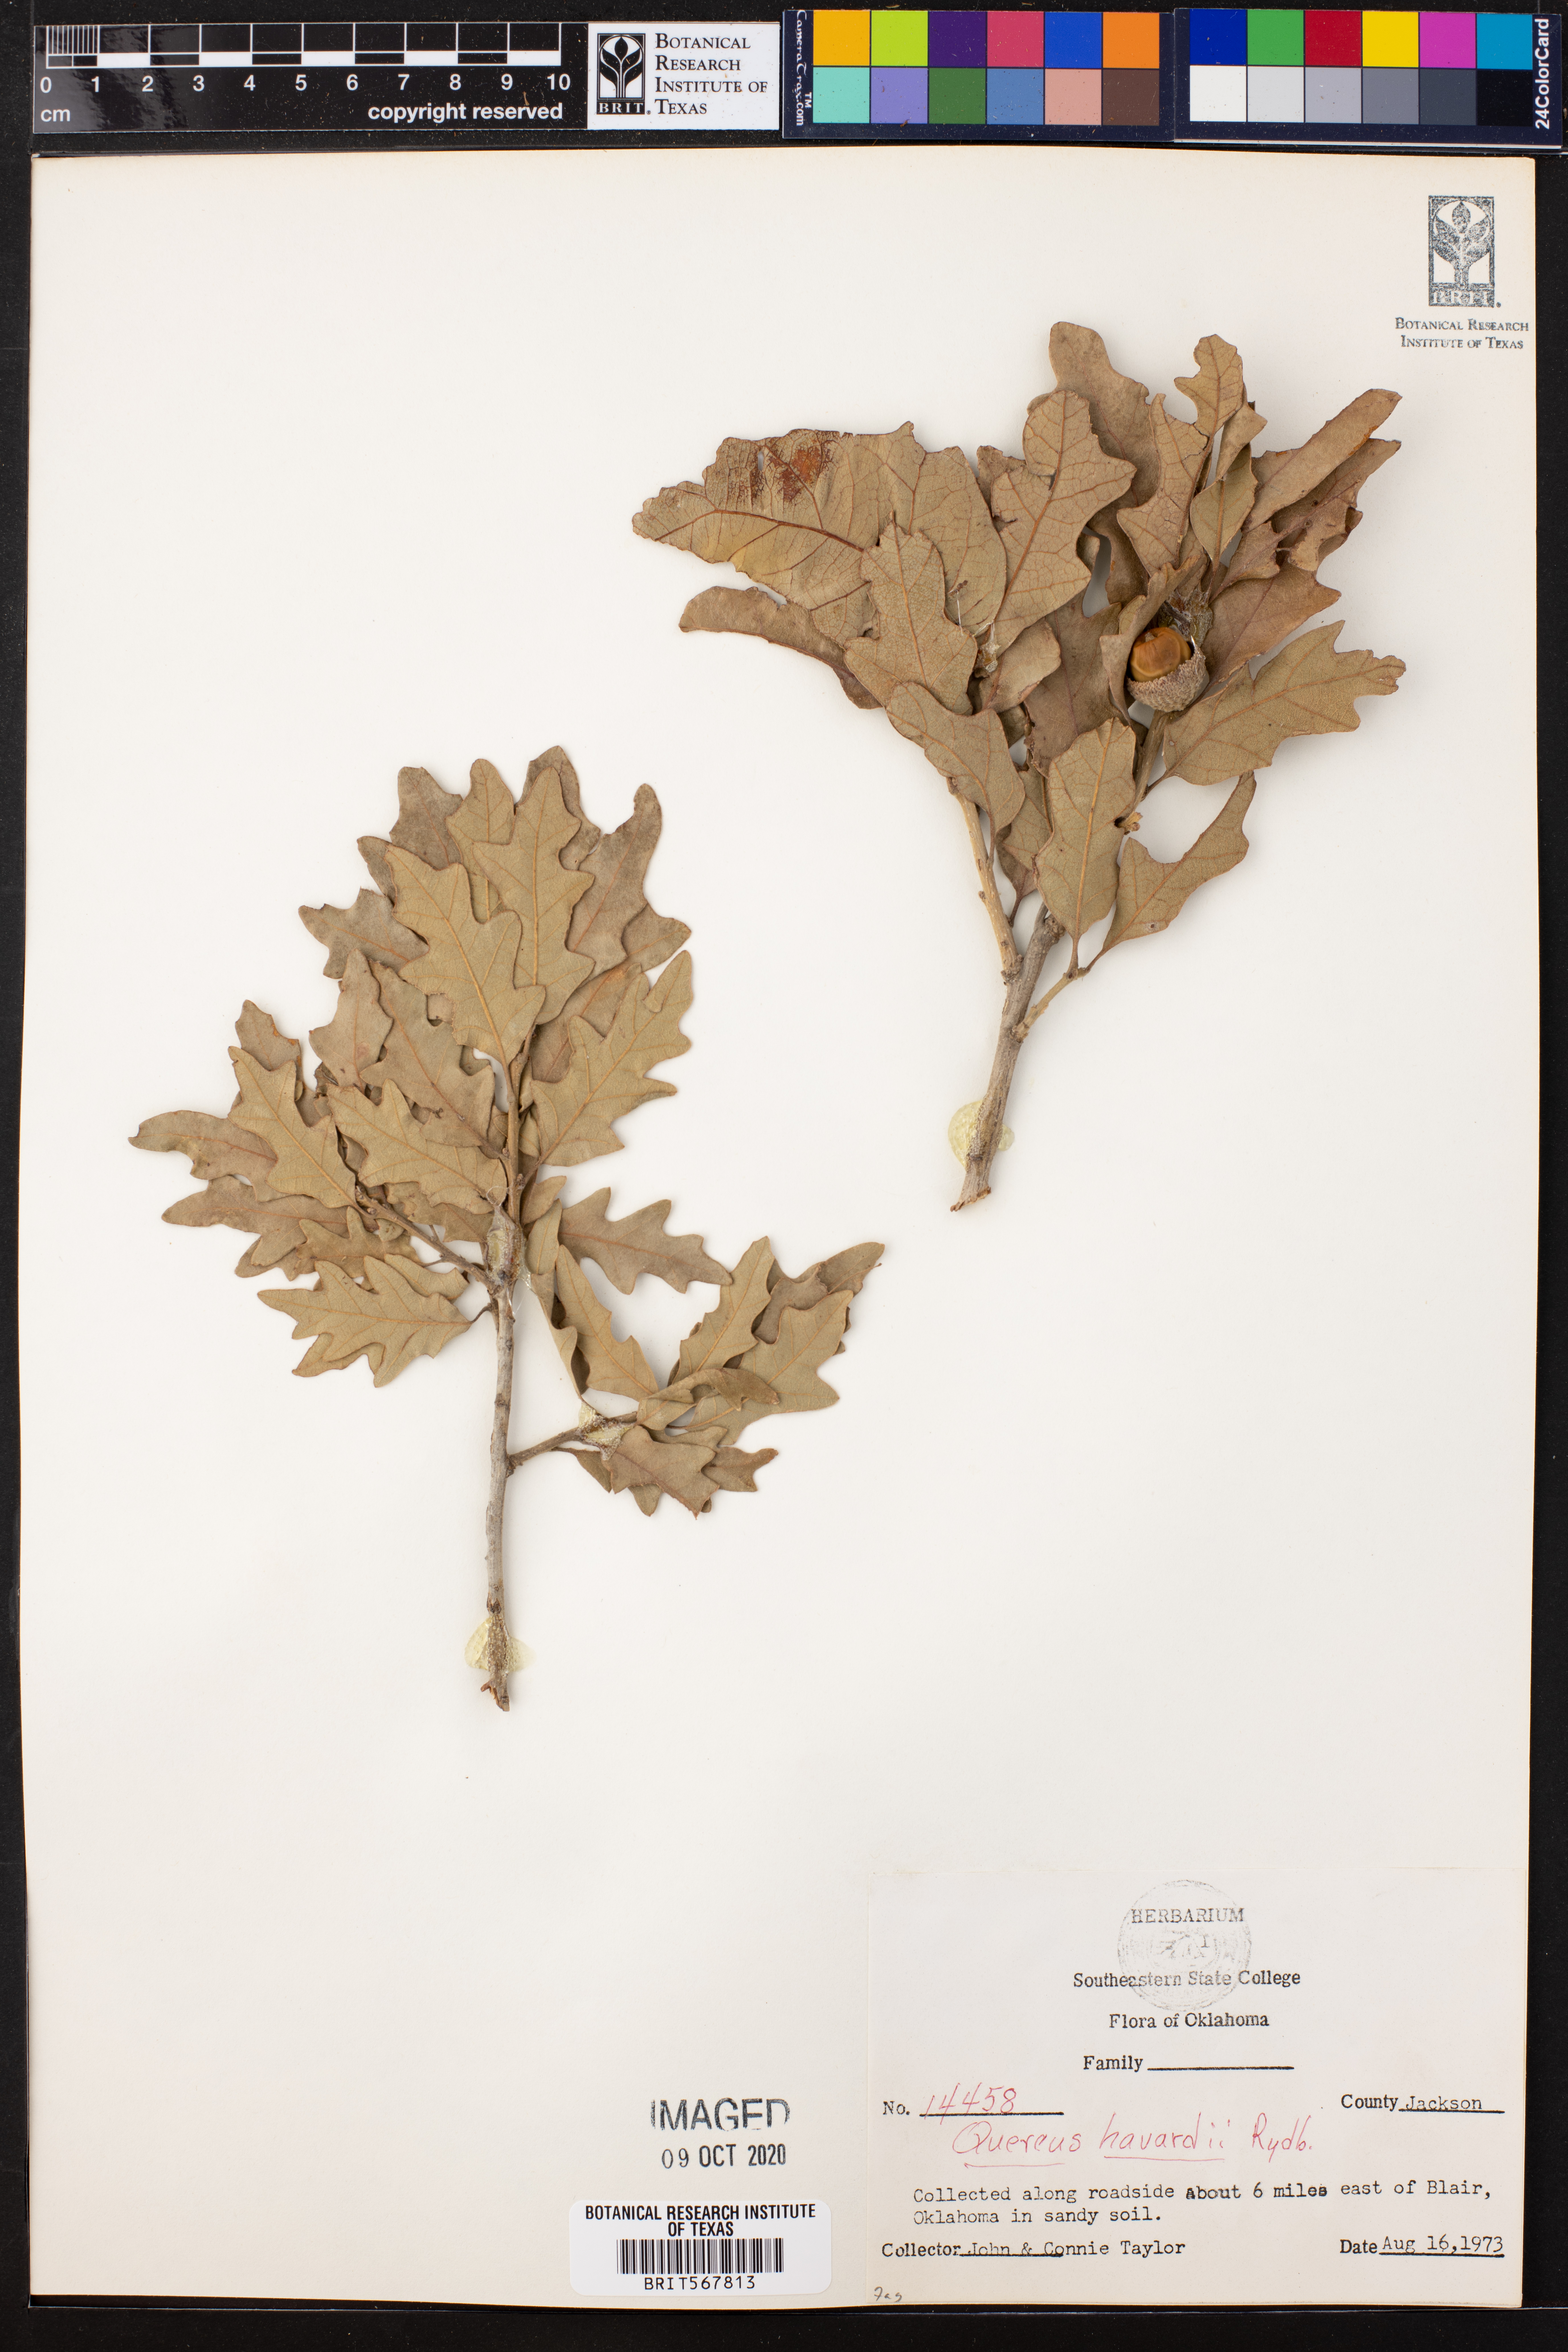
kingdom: Plantae
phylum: Tracheophyta
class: Magnoliopsida
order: Fagales
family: Fagaceae
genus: Quercus
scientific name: Quercus havardii
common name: Shinnery oak
